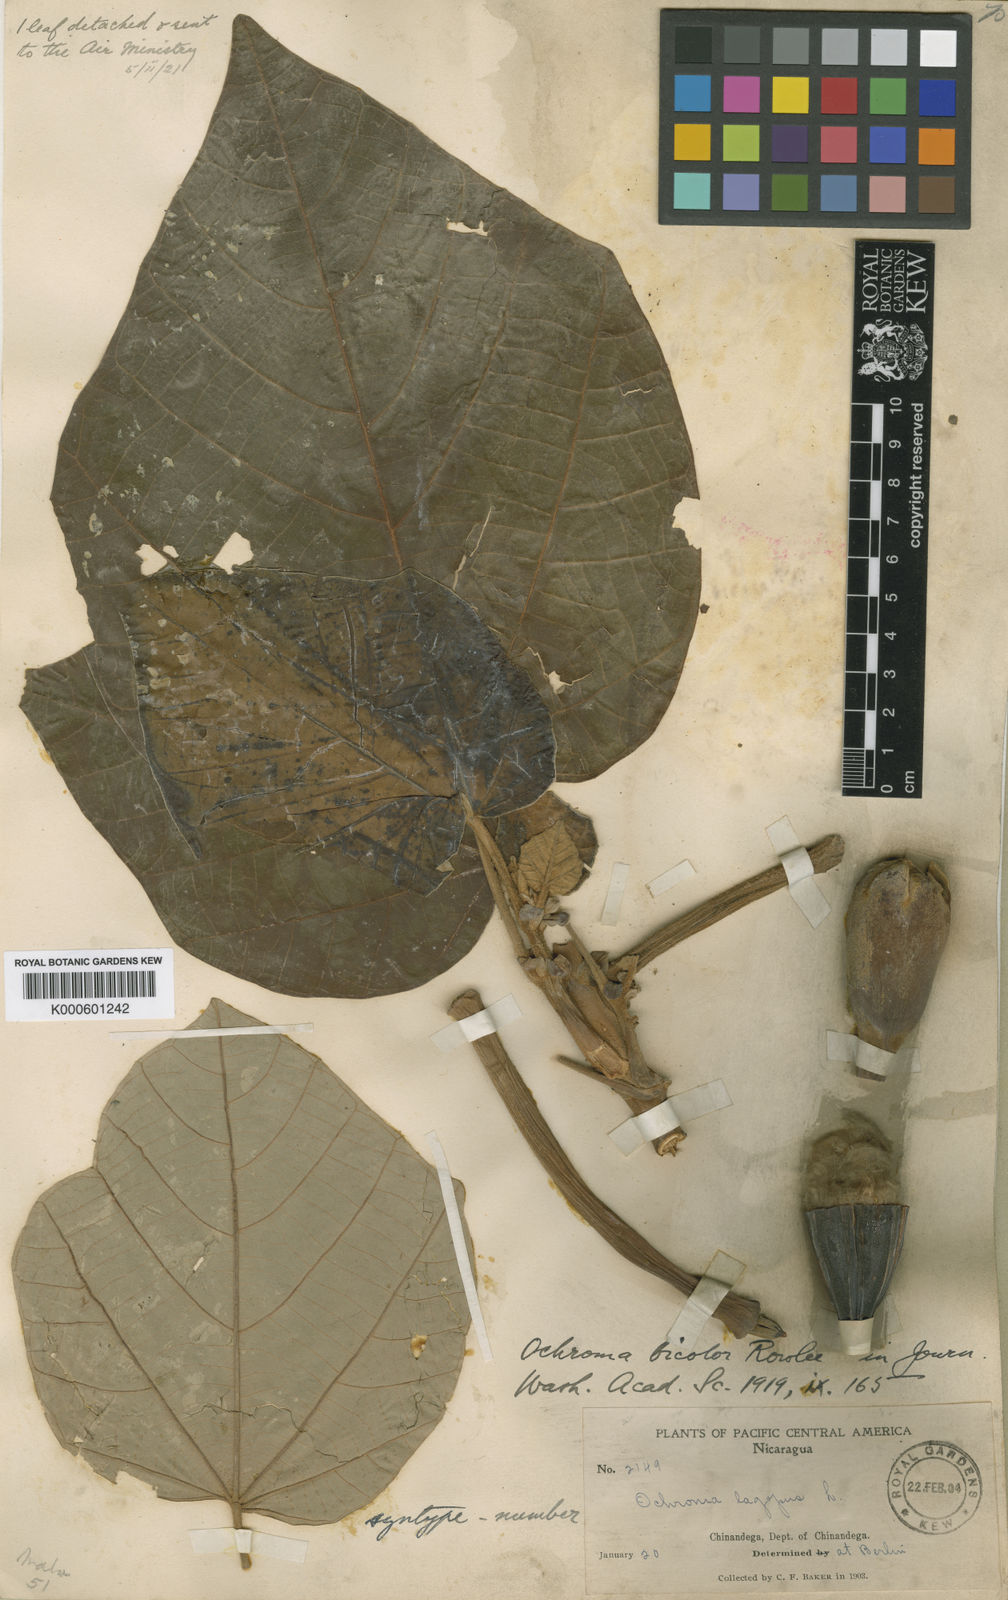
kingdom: Plantae
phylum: Tracheophyta
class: Magnoliopsida
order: Malvales
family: Malvaceae
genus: Ochroma
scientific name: Ochroma pyramidale
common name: Balsa
